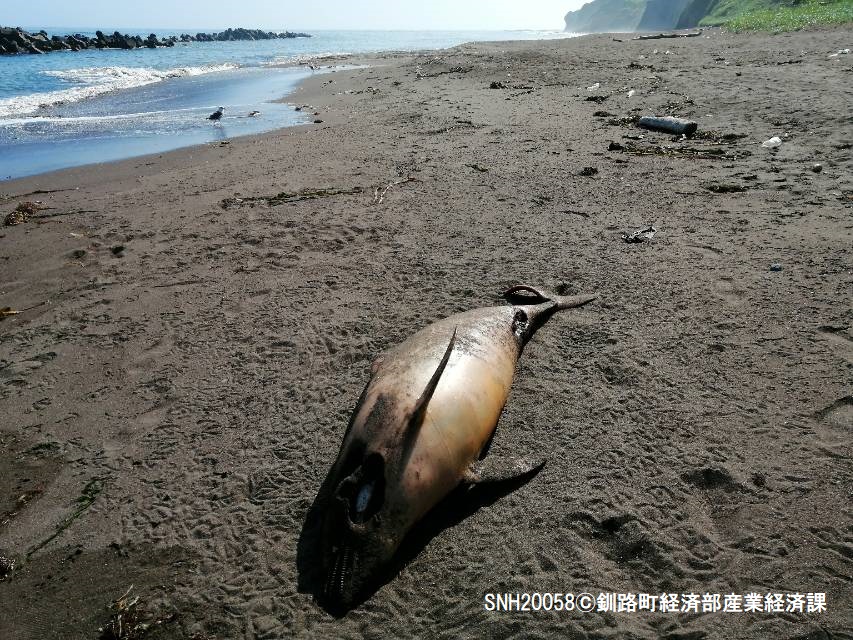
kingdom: Animalia
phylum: Chordata
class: Mammalia
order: Cetacea
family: Delphinidae
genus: Lagenorhynchus
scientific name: Lagenorhynchus obliquidens
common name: Pacific white-sided dolphin
